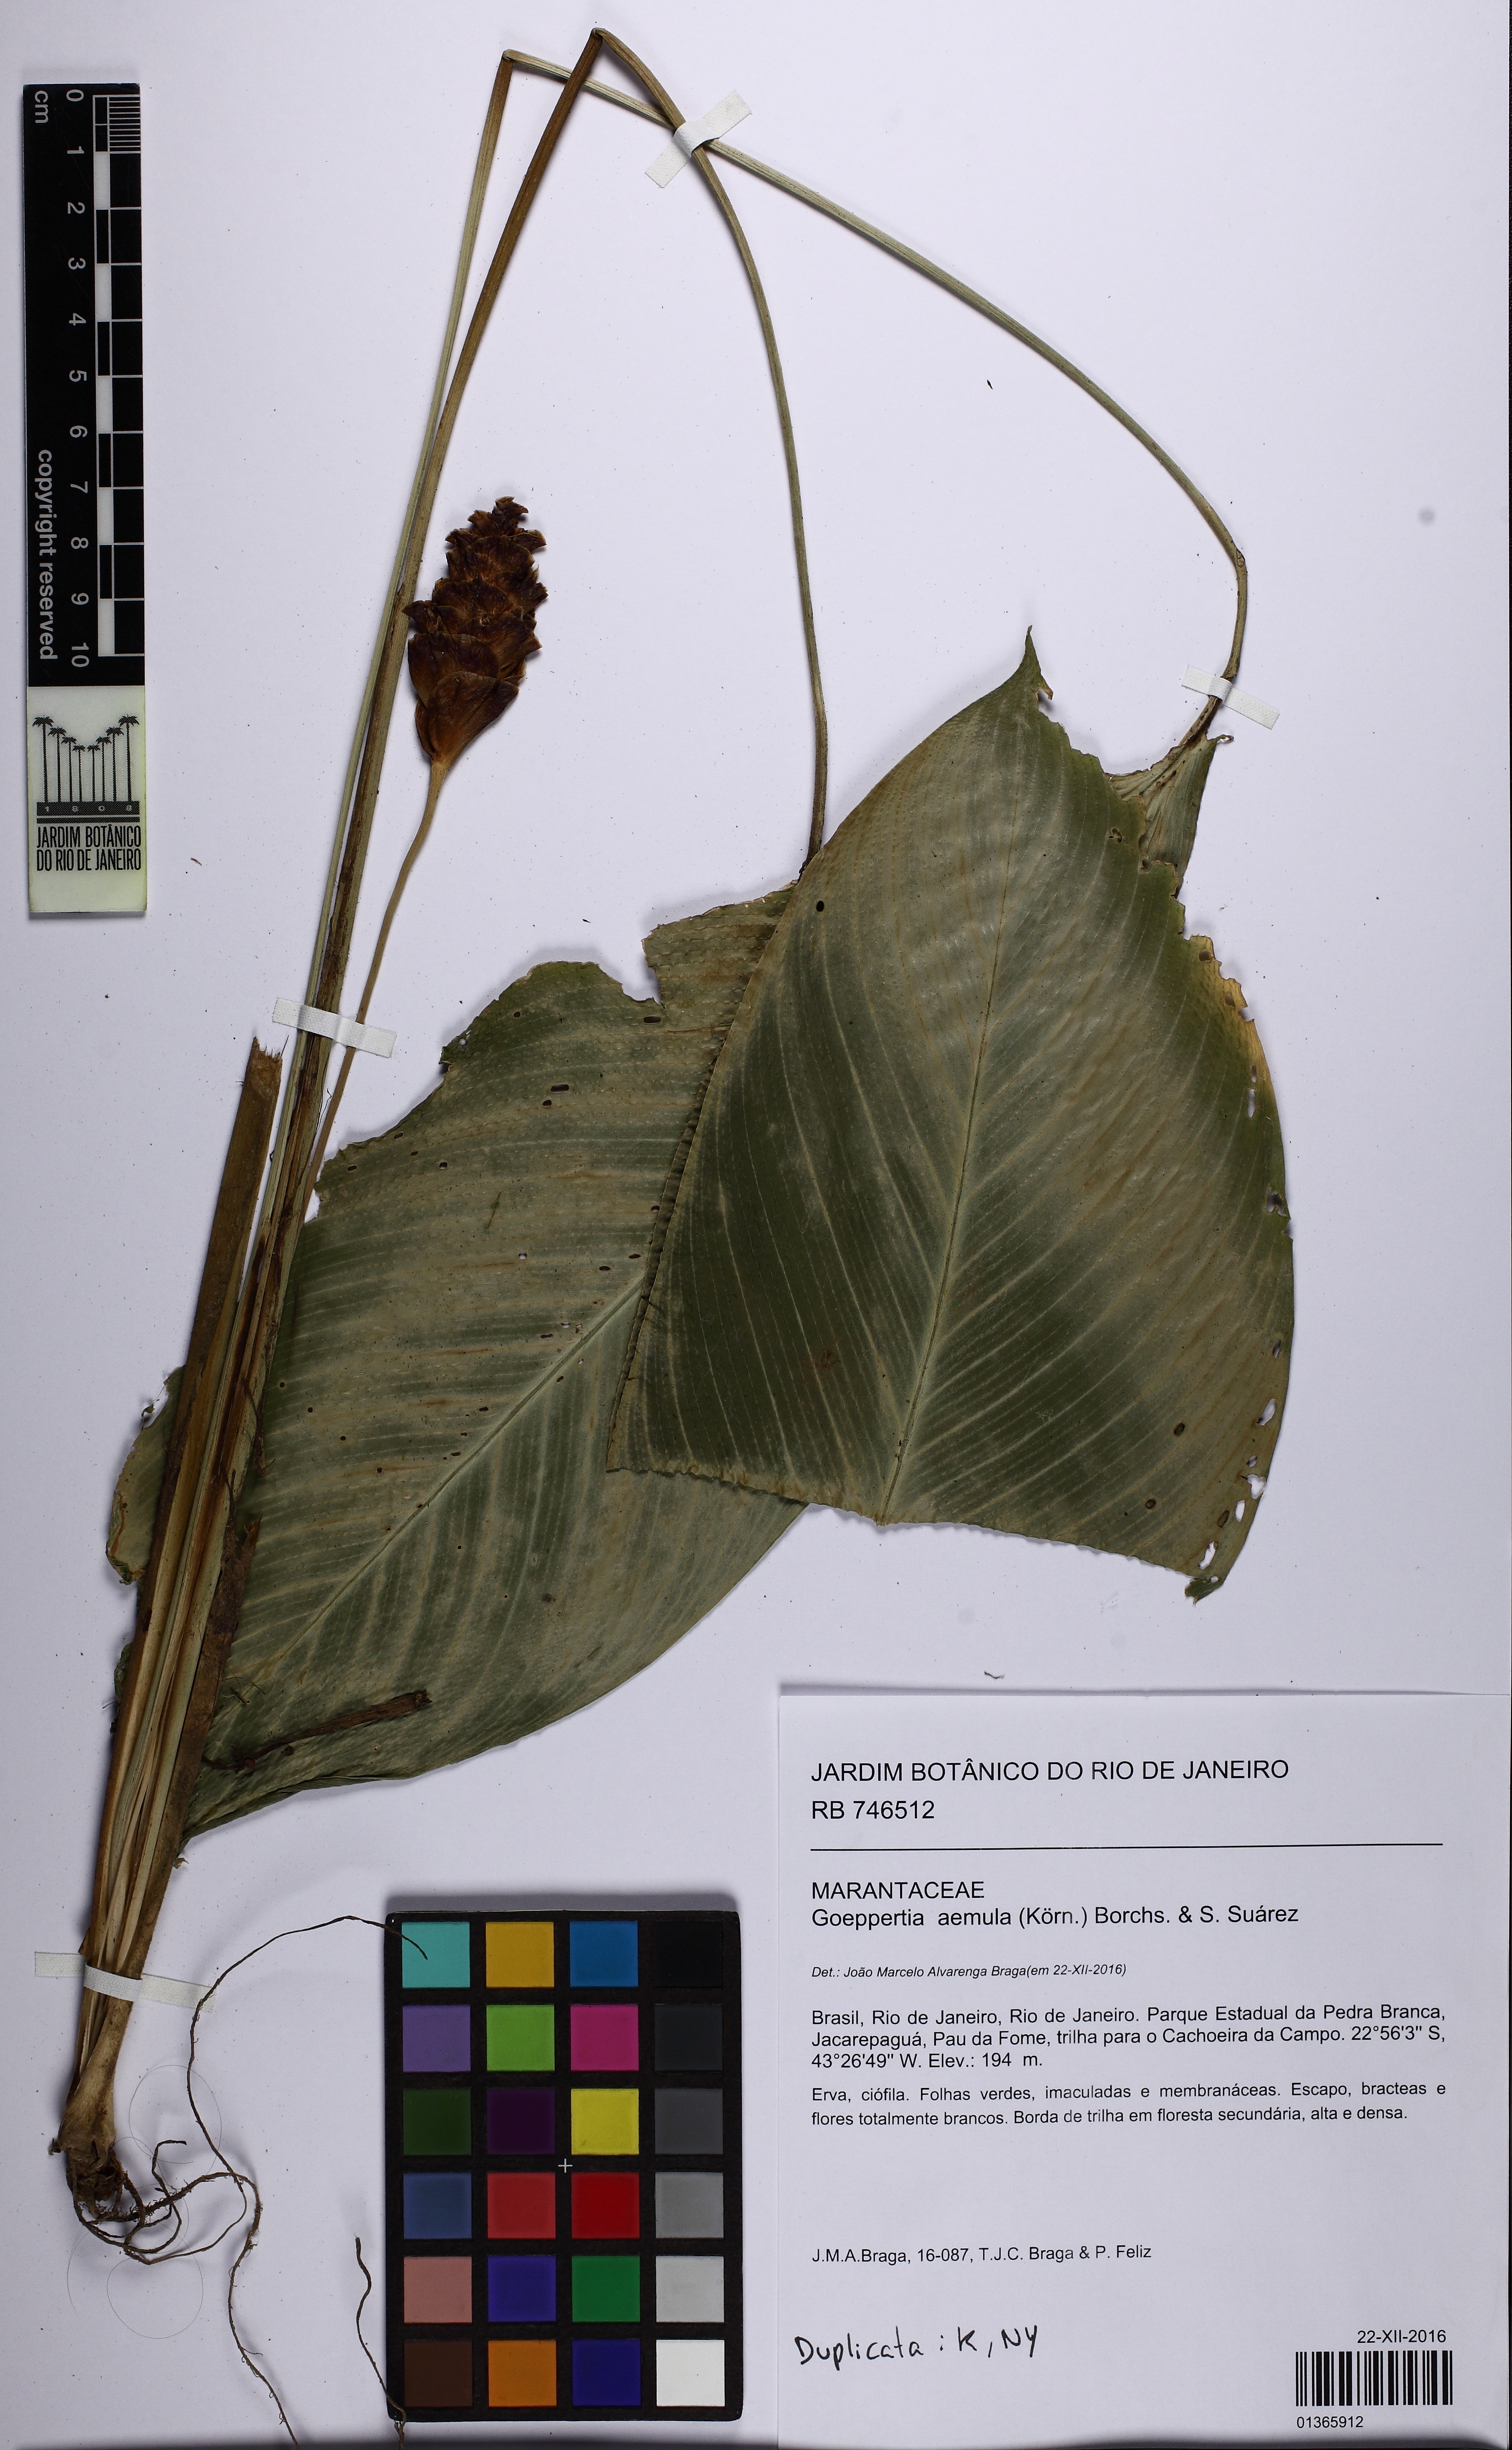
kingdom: Plantae
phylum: Tracheophyta
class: Liliopsida
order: Zingiberales
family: Marantaceae
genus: Goeppertia
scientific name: Goeppertia aemula
